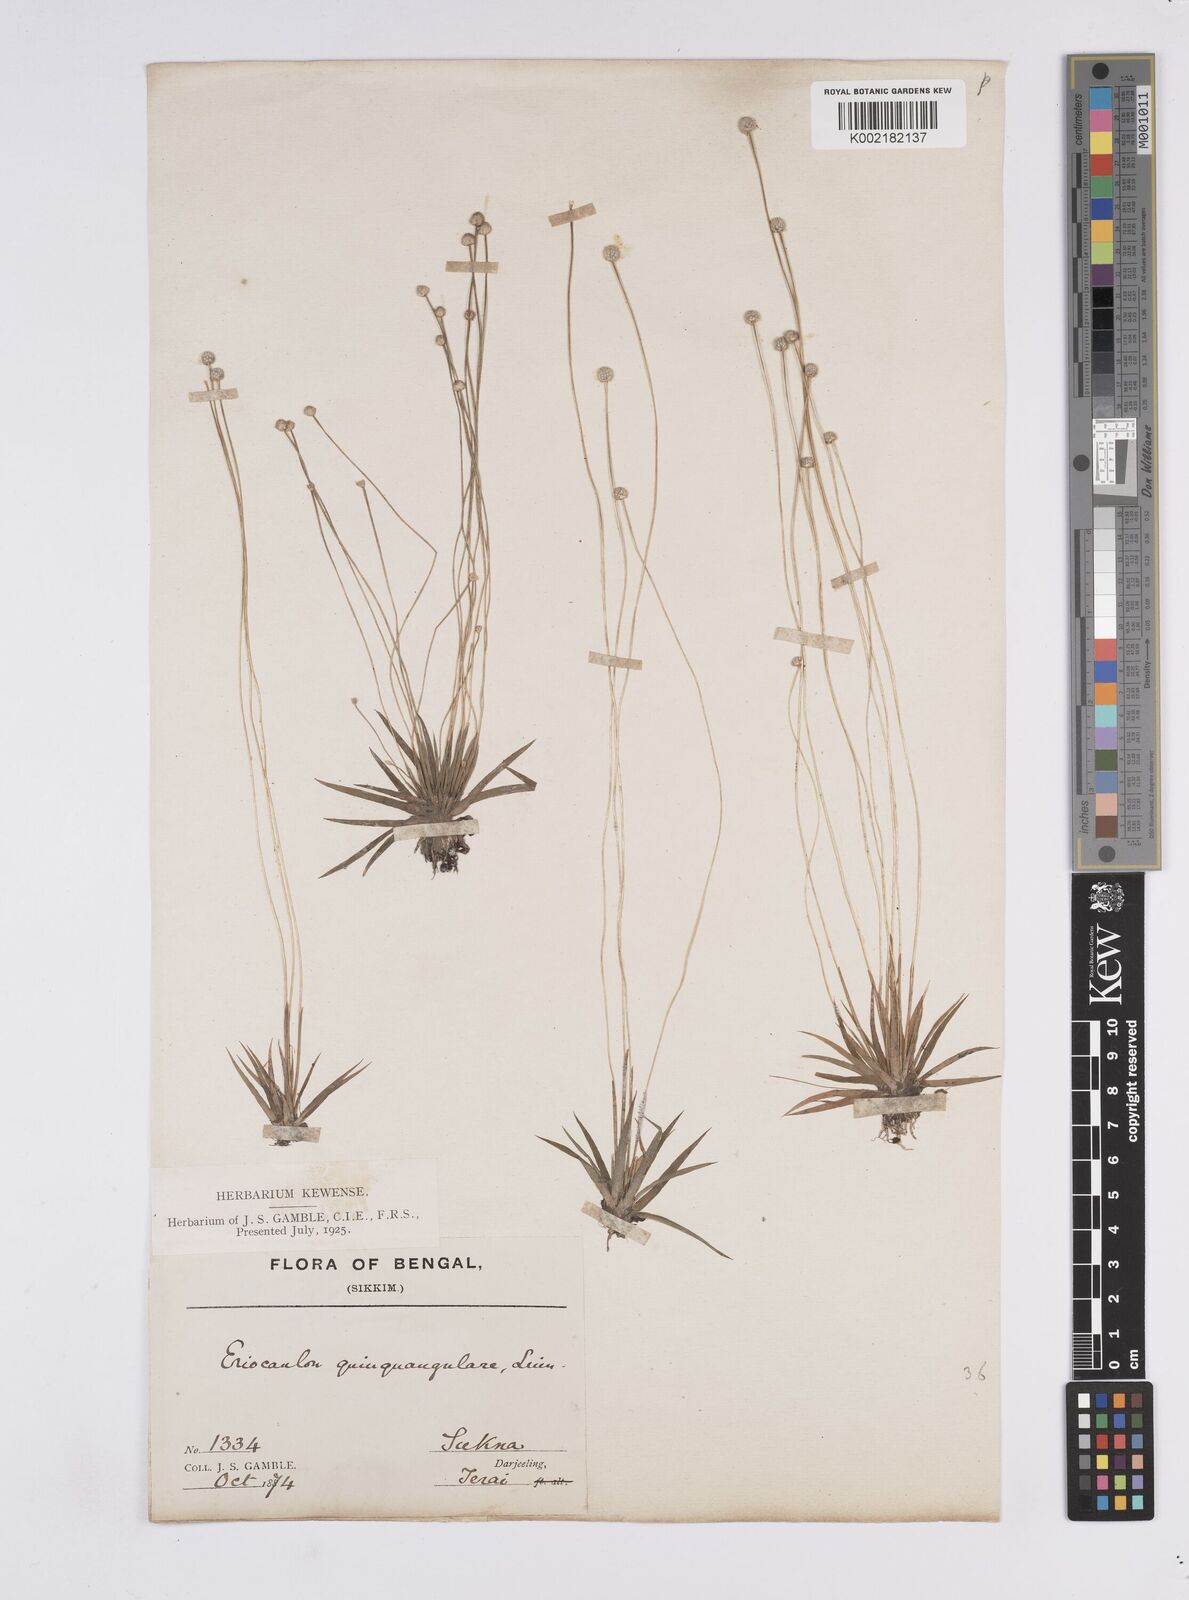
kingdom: Plantae
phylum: Tracheophyta
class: Liliopsida
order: Poales
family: Eriocaulaceae
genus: Eriocaulon
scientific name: Eriocaulon
